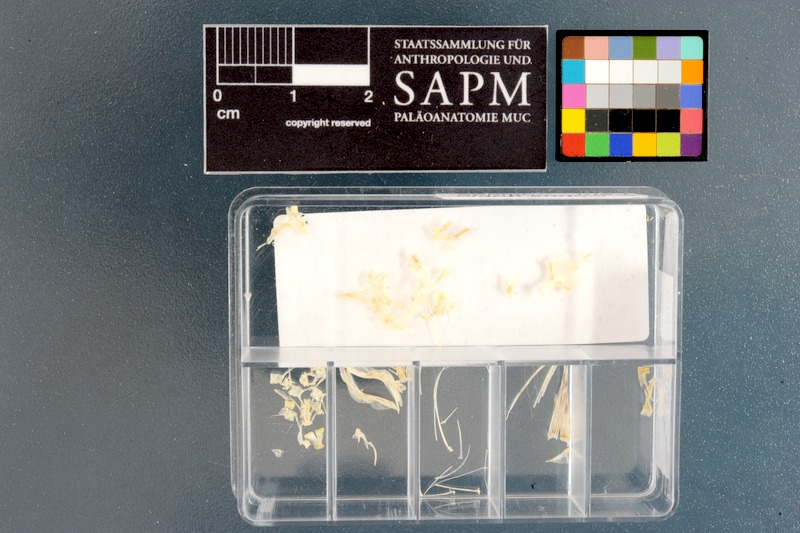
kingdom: Animalia
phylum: Chordata
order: Scorpaeniformes
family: Cottidae
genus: Cottus
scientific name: Cottus gobio
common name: Bullhead
